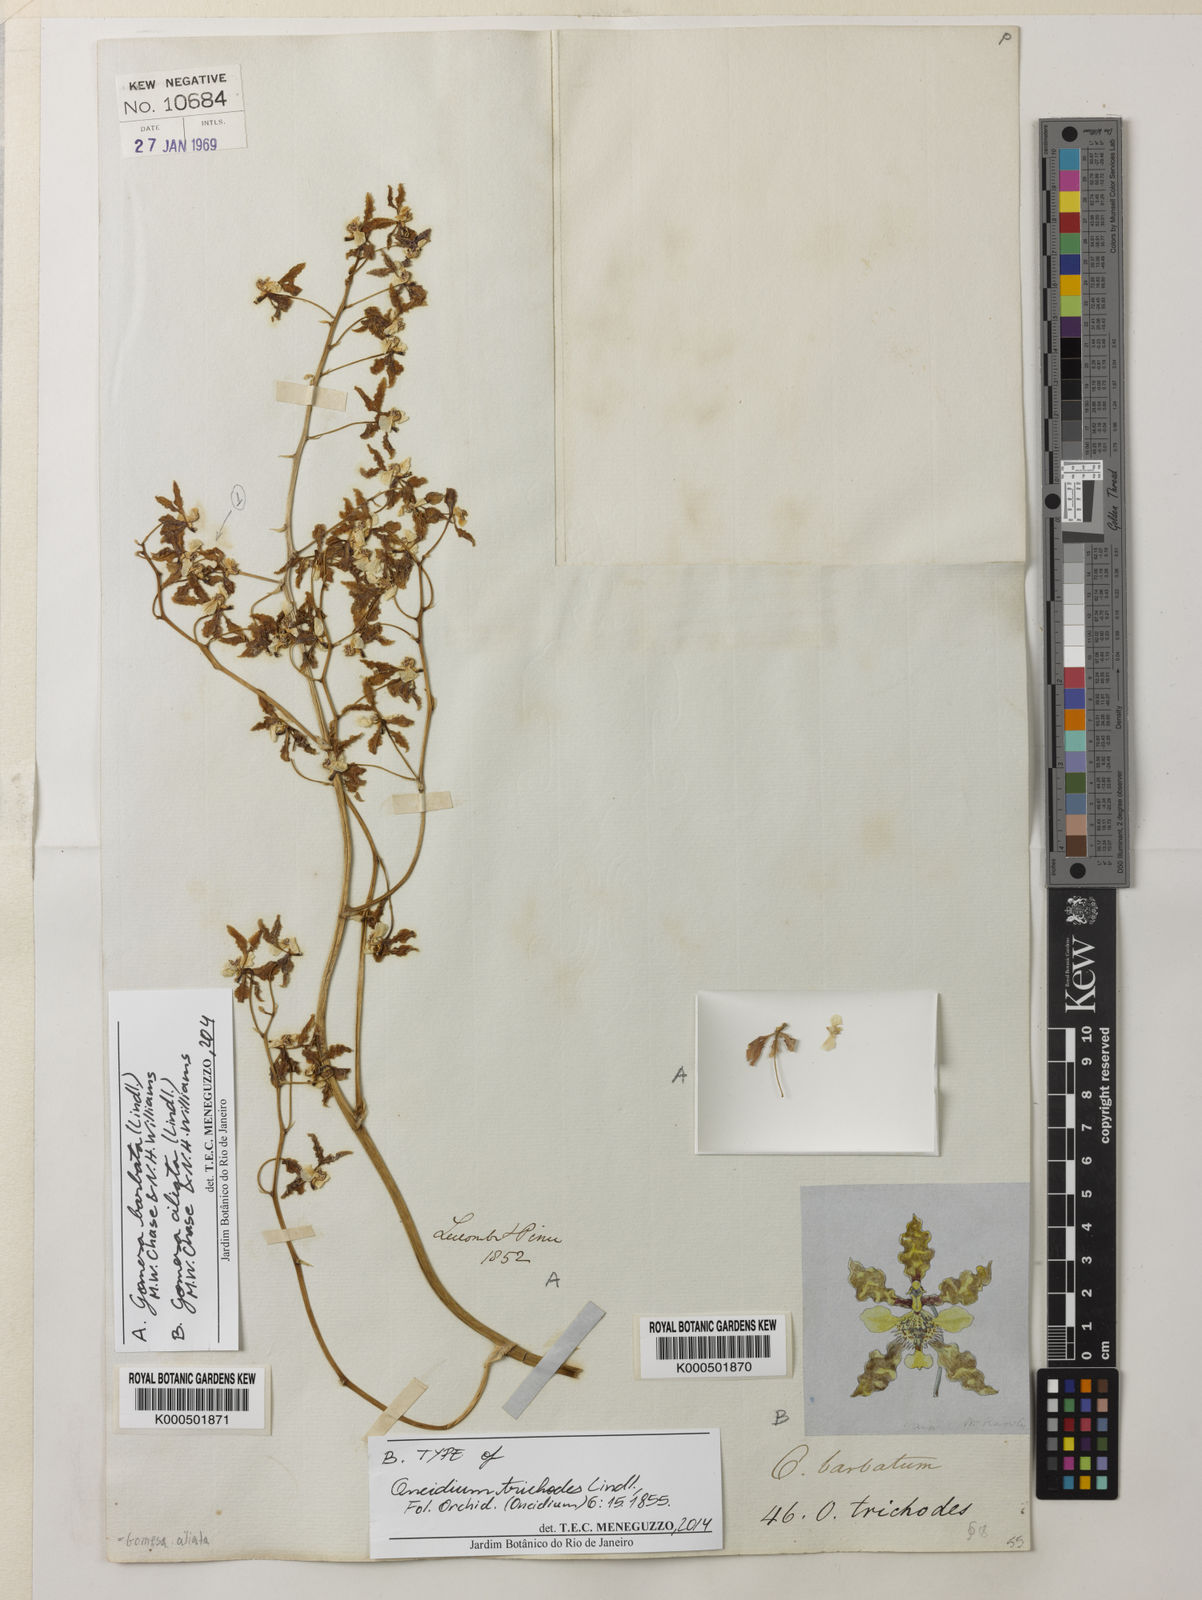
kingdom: Plantae
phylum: Tracheophyta
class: Liliopsida
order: Asparagales
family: Orchidaceae
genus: Gomesa
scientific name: Gomesa ciliata
